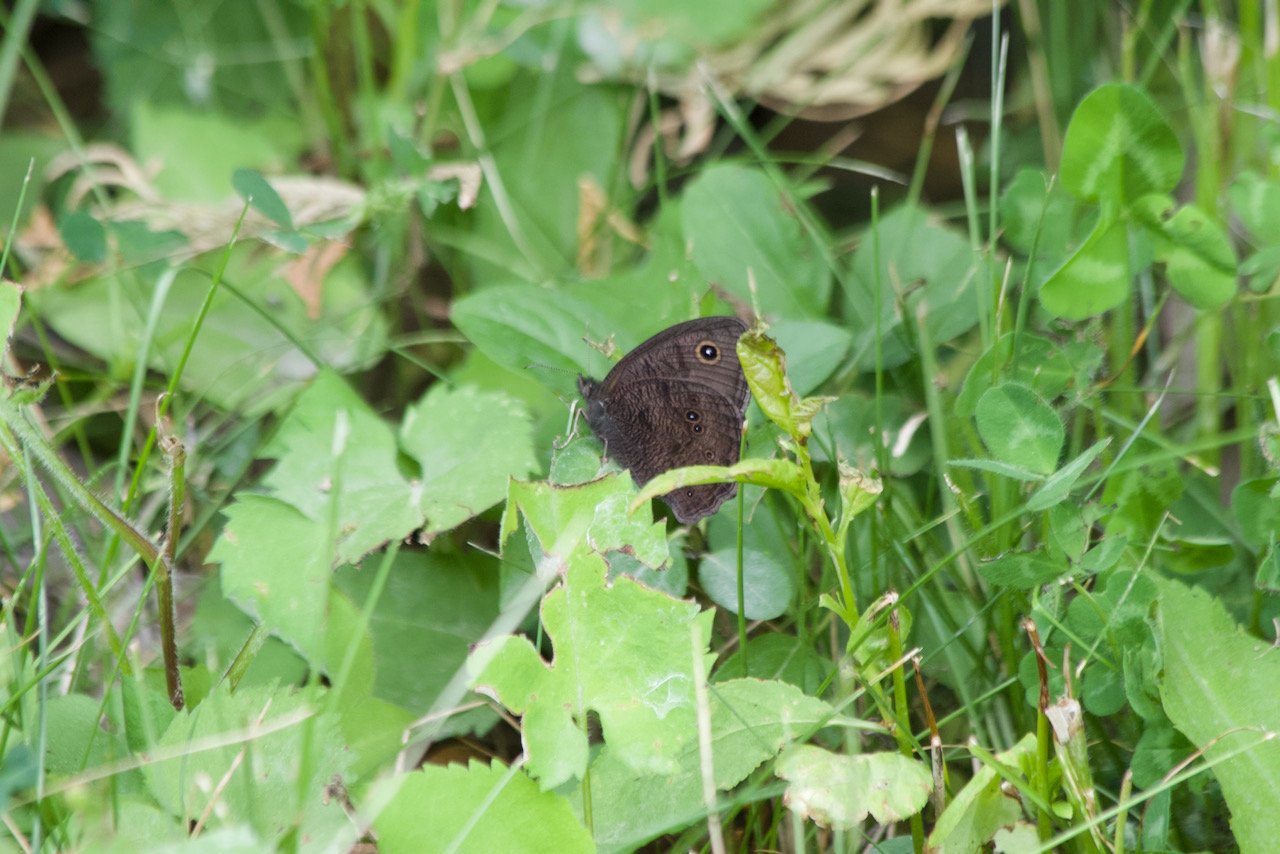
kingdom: Animalia
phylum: Arthropoda
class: Insecta
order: Lepidoptera
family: Nymphalidae
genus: Cercyonis
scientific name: Cercyonis pegala
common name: Common Wood-Nymph
